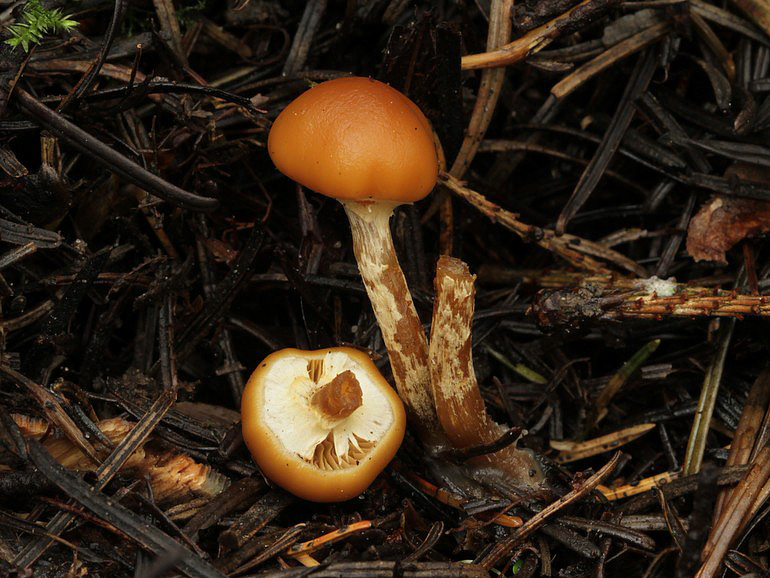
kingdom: Fungi
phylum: Basidiomycota
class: Agaricomycetes
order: Agaricales
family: Hymenogastraceae
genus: Galerina
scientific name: Galerina marginata
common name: randbæltet hjelmhat
